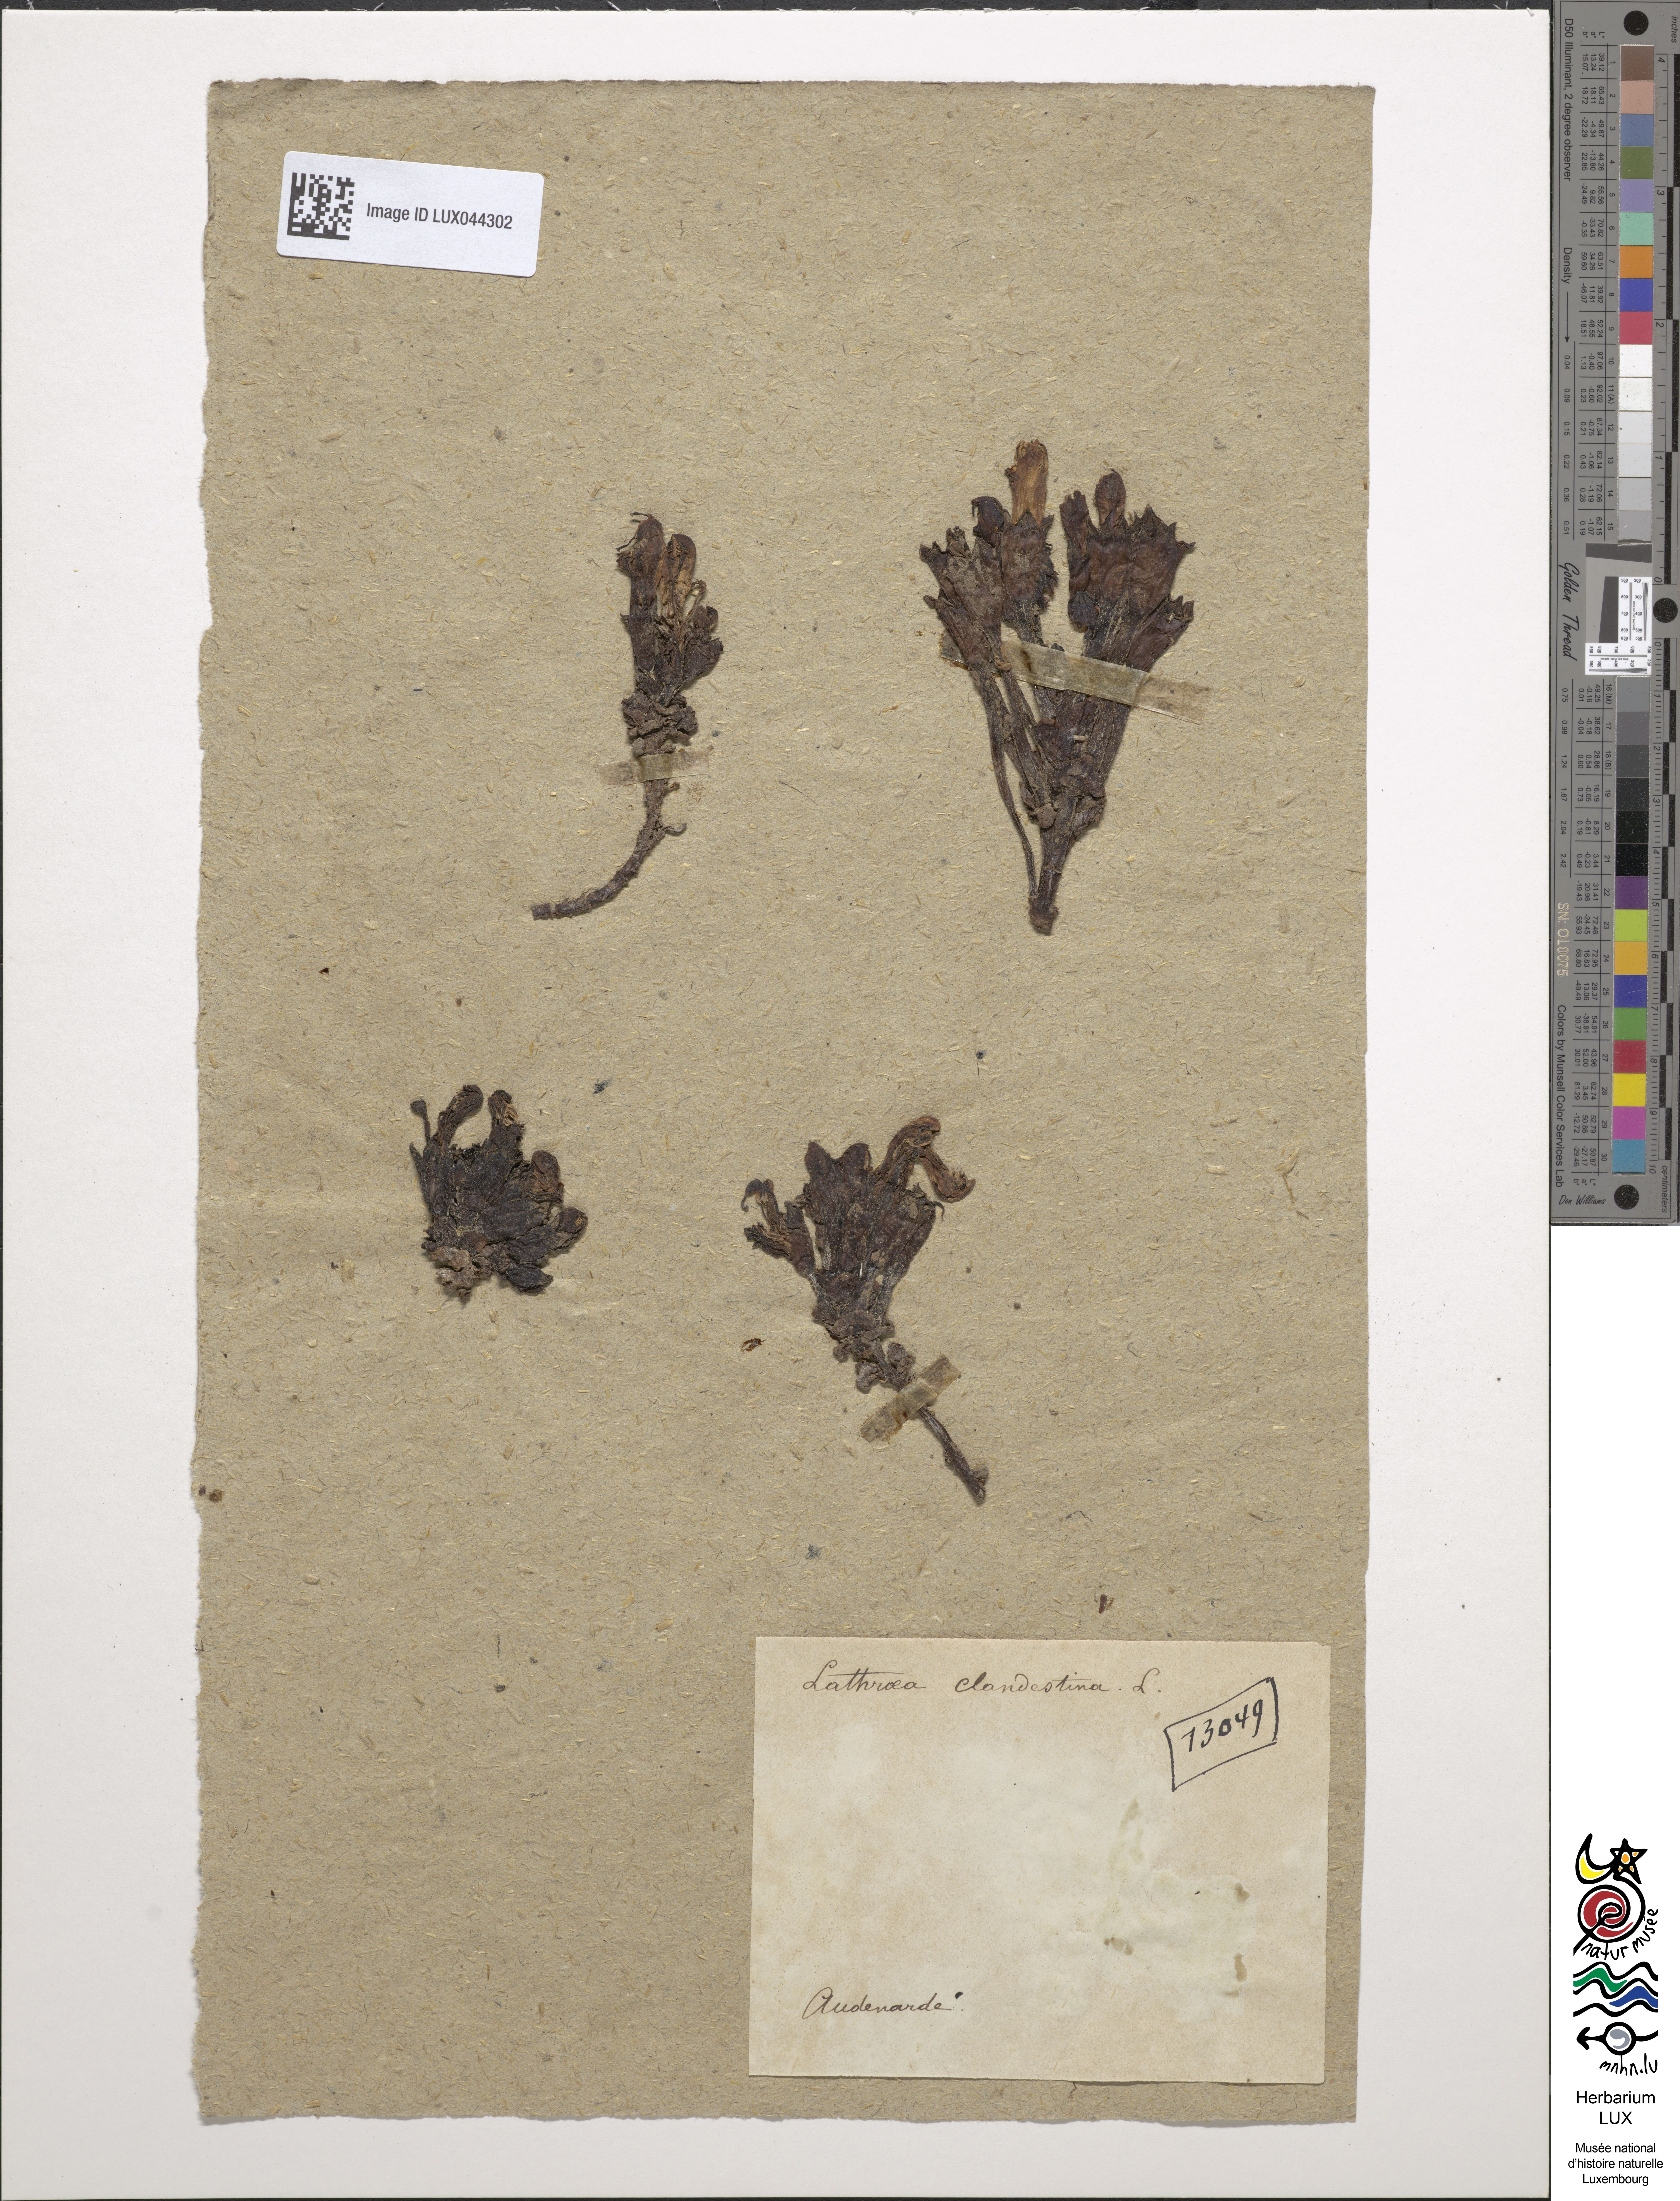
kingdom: Plantae
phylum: Tracheophyta
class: Magnoliopsida
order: Lamiales
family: Orobanchaceae
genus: Lathraea
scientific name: Lathraea clandestina
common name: Purple toothwort
